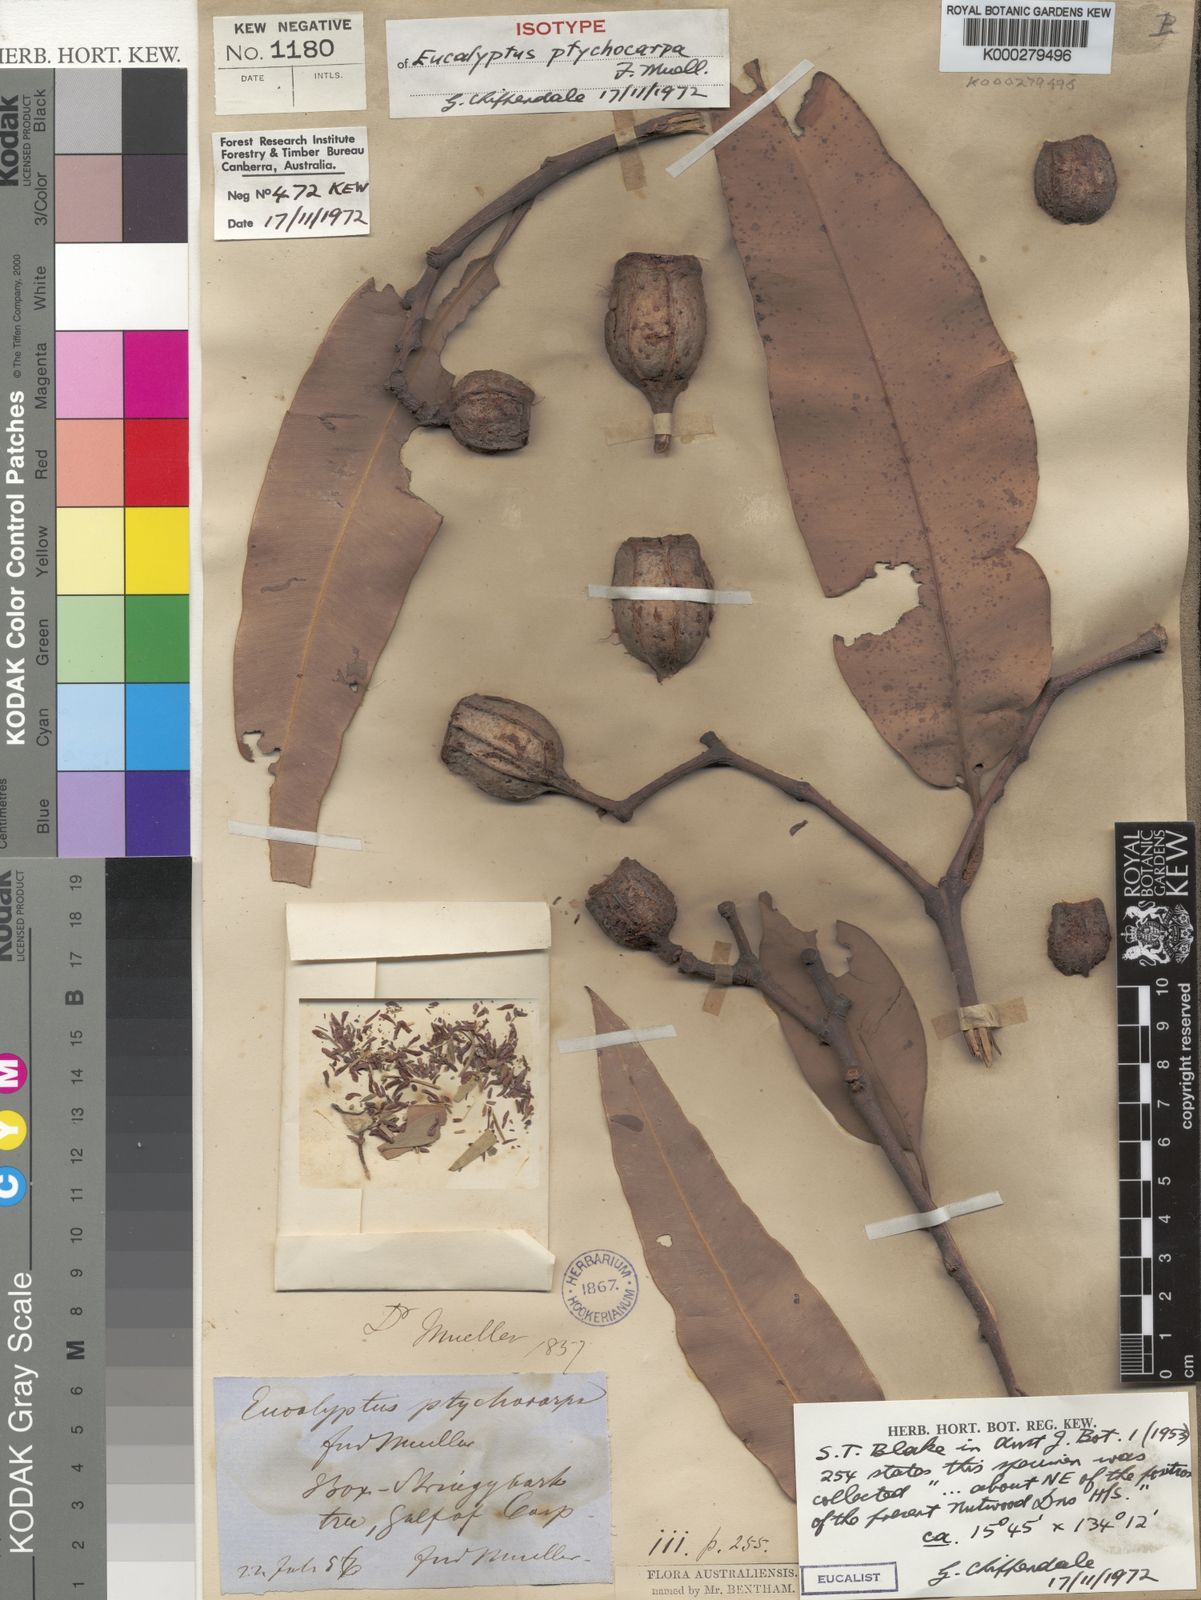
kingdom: Plantae
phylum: Tracheophyta
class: Magnoliopsida
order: Myrtales
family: Myrtaceae
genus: Corymbia
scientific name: Corymbia ptychocarpa
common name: Spring-bloodwood
